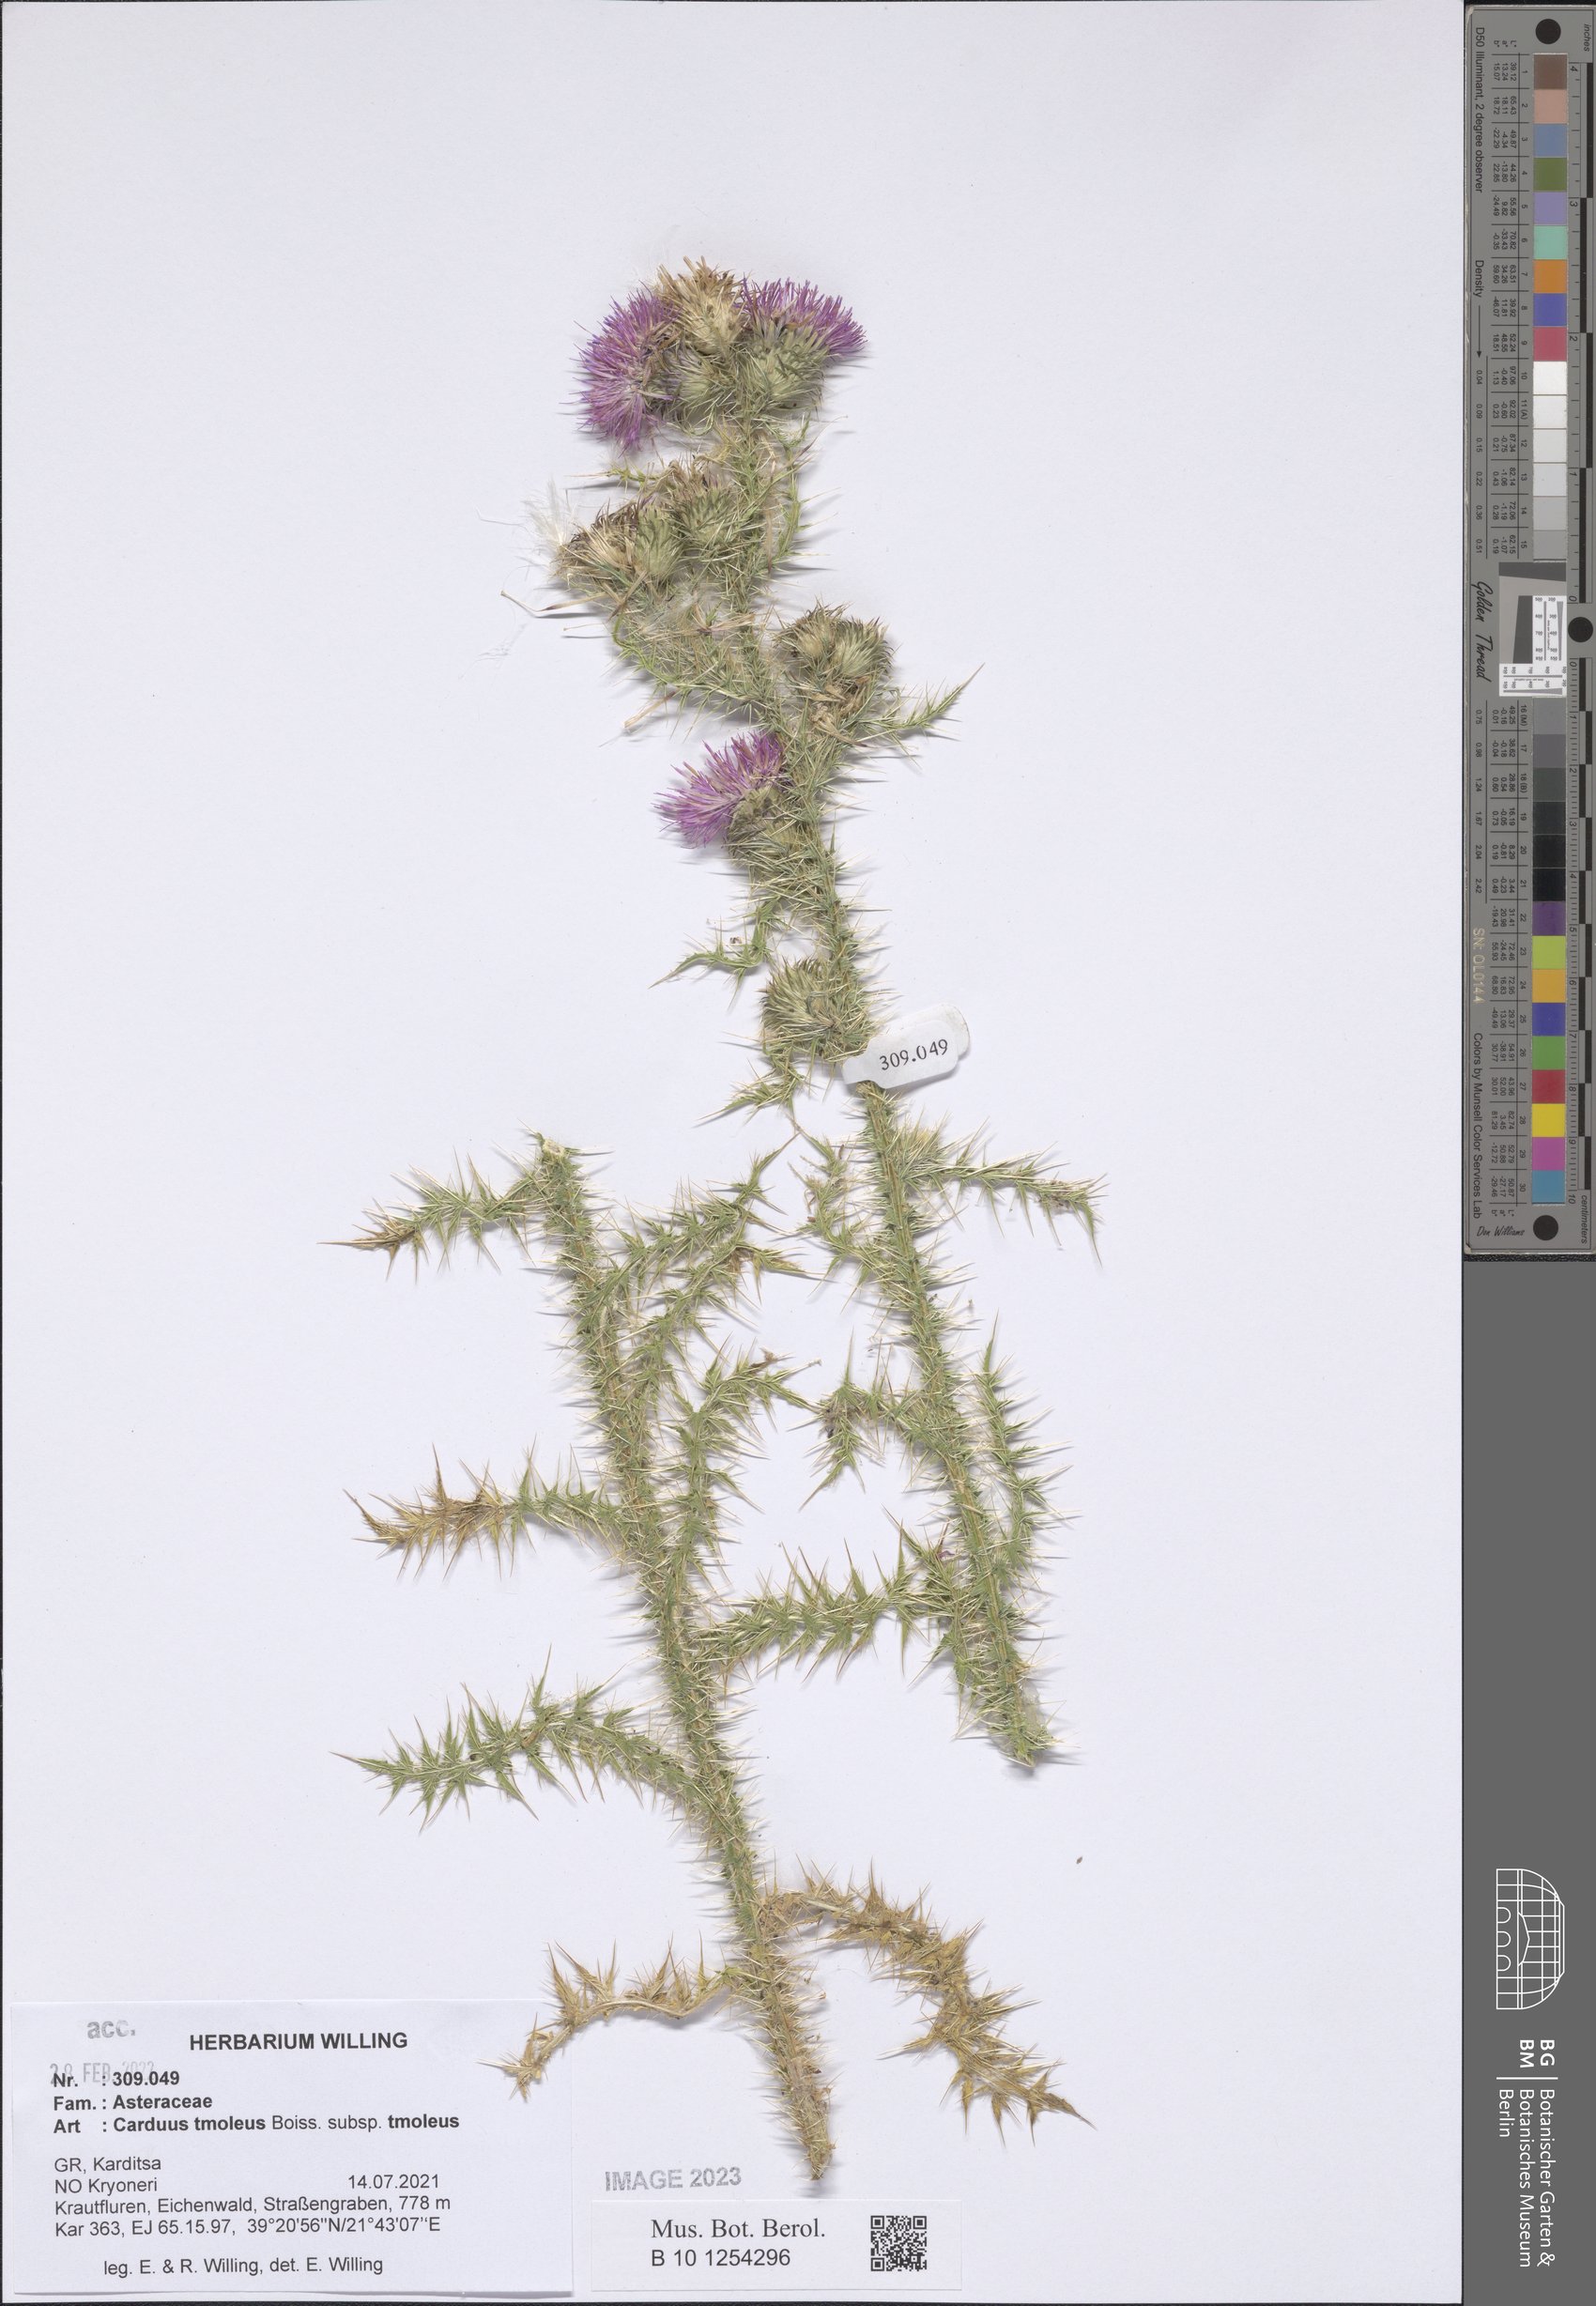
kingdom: Plantae
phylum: Tracheophyta
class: Magnoliopsida
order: Asterales
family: Asteraceae
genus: Carduus
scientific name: Carduus tmoleus
